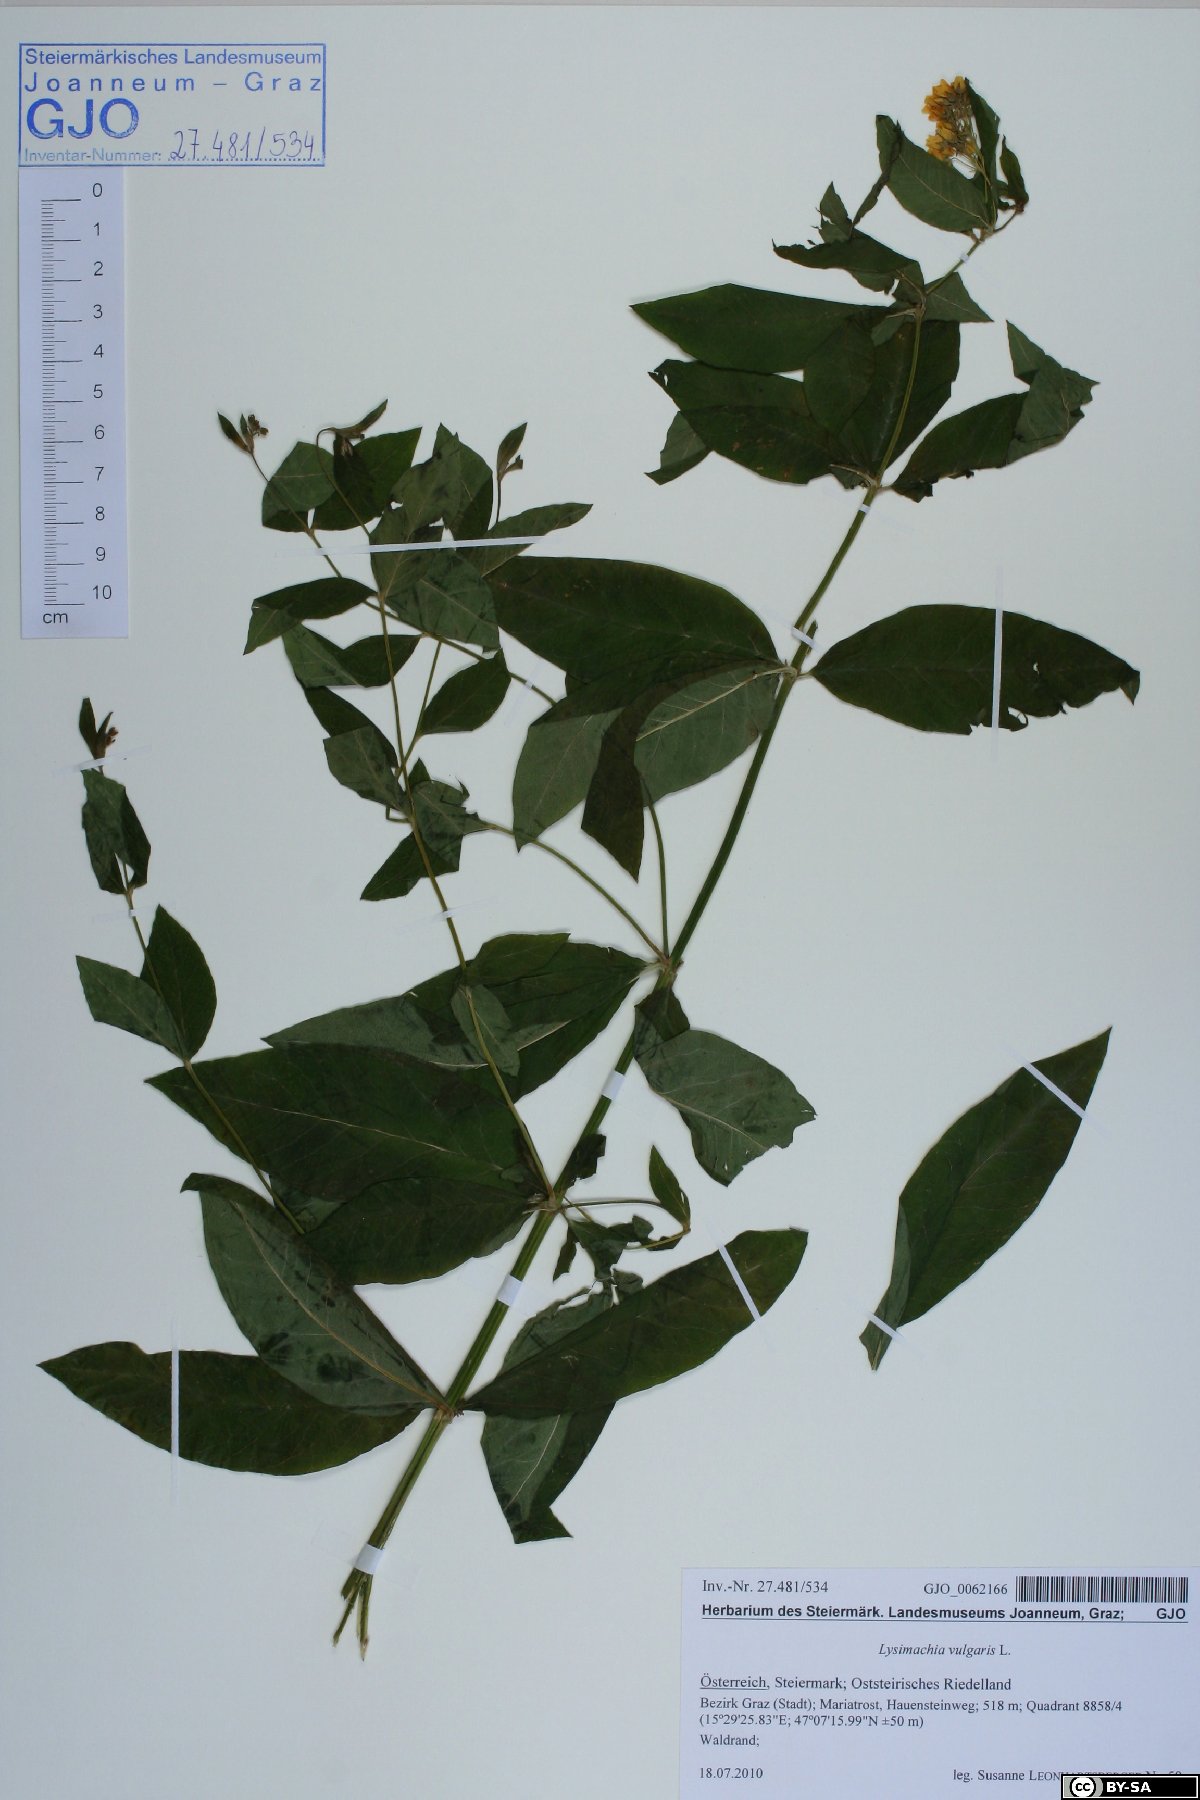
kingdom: Plantae
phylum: Tracheophyta
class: Magnoliopsida
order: Ericales
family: Primulaceae
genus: Lysimachia
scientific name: Lysimachia vulgaris
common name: Yellow loosestrife
